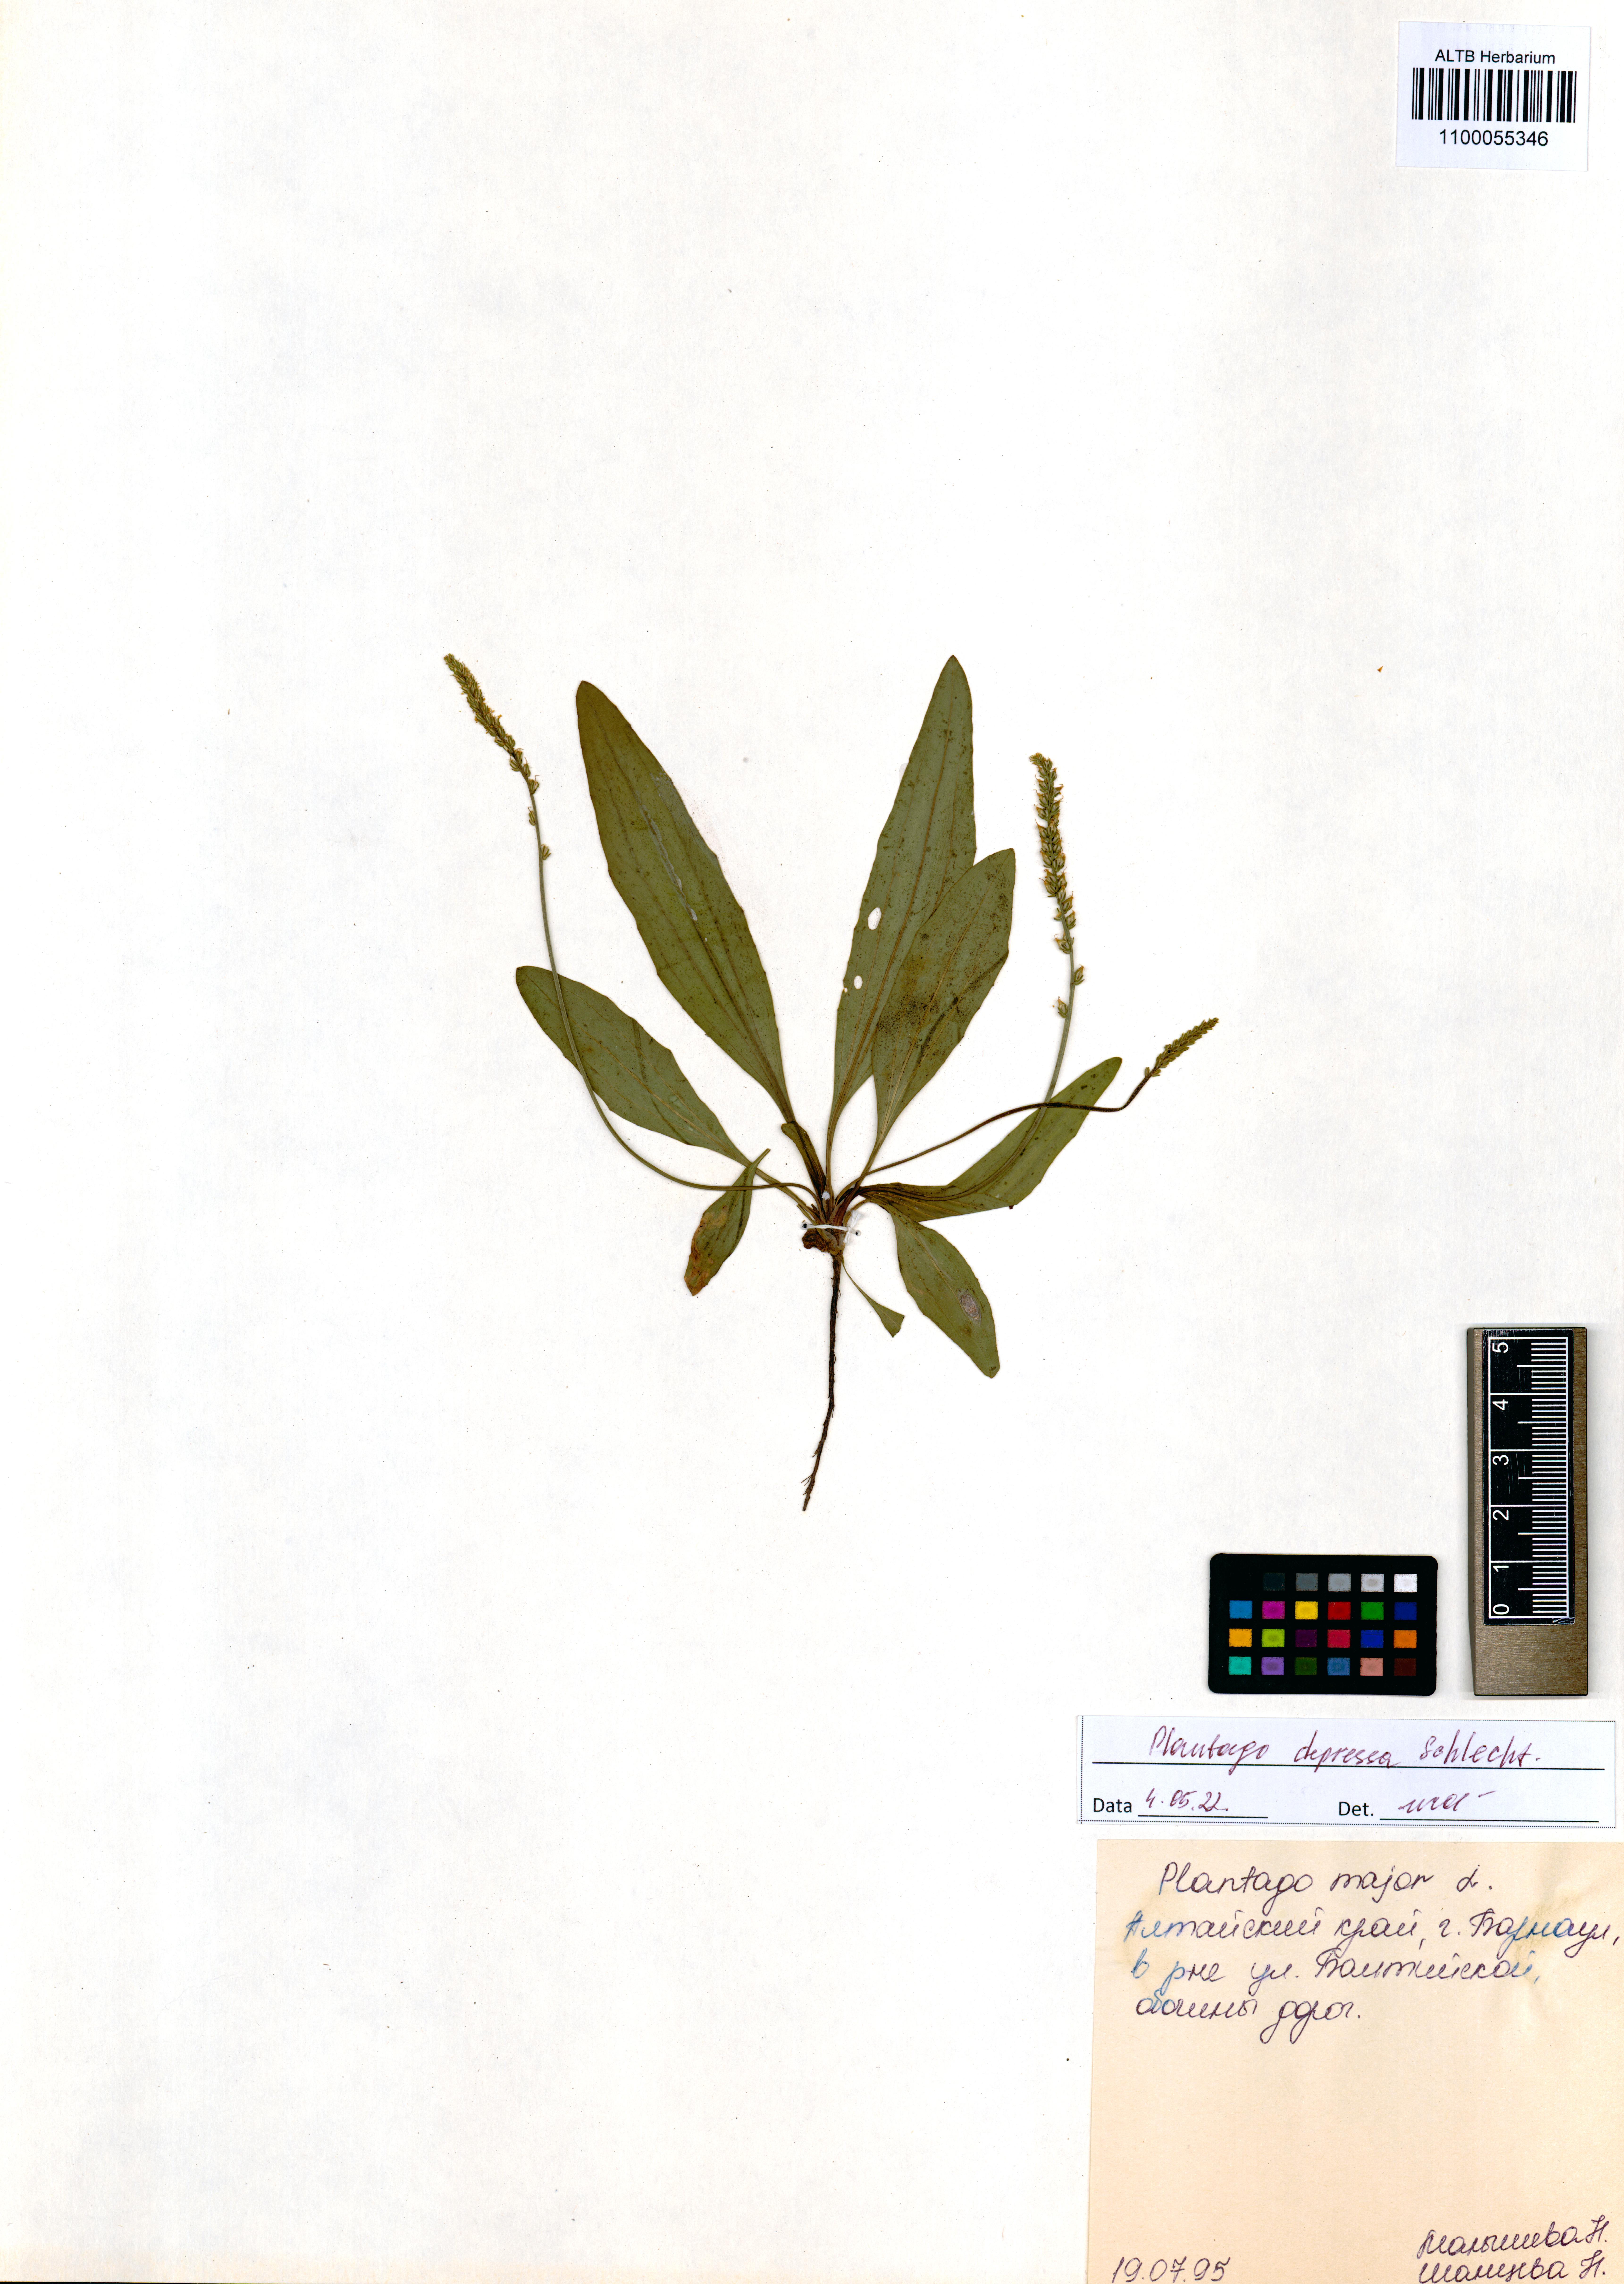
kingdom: Plantae
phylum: Tracheophyta
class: Magnoliopsida
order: Lamiales
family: Plantaginaceae
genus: Plantago
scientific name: Plantago depressa
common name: Depressed plantain
